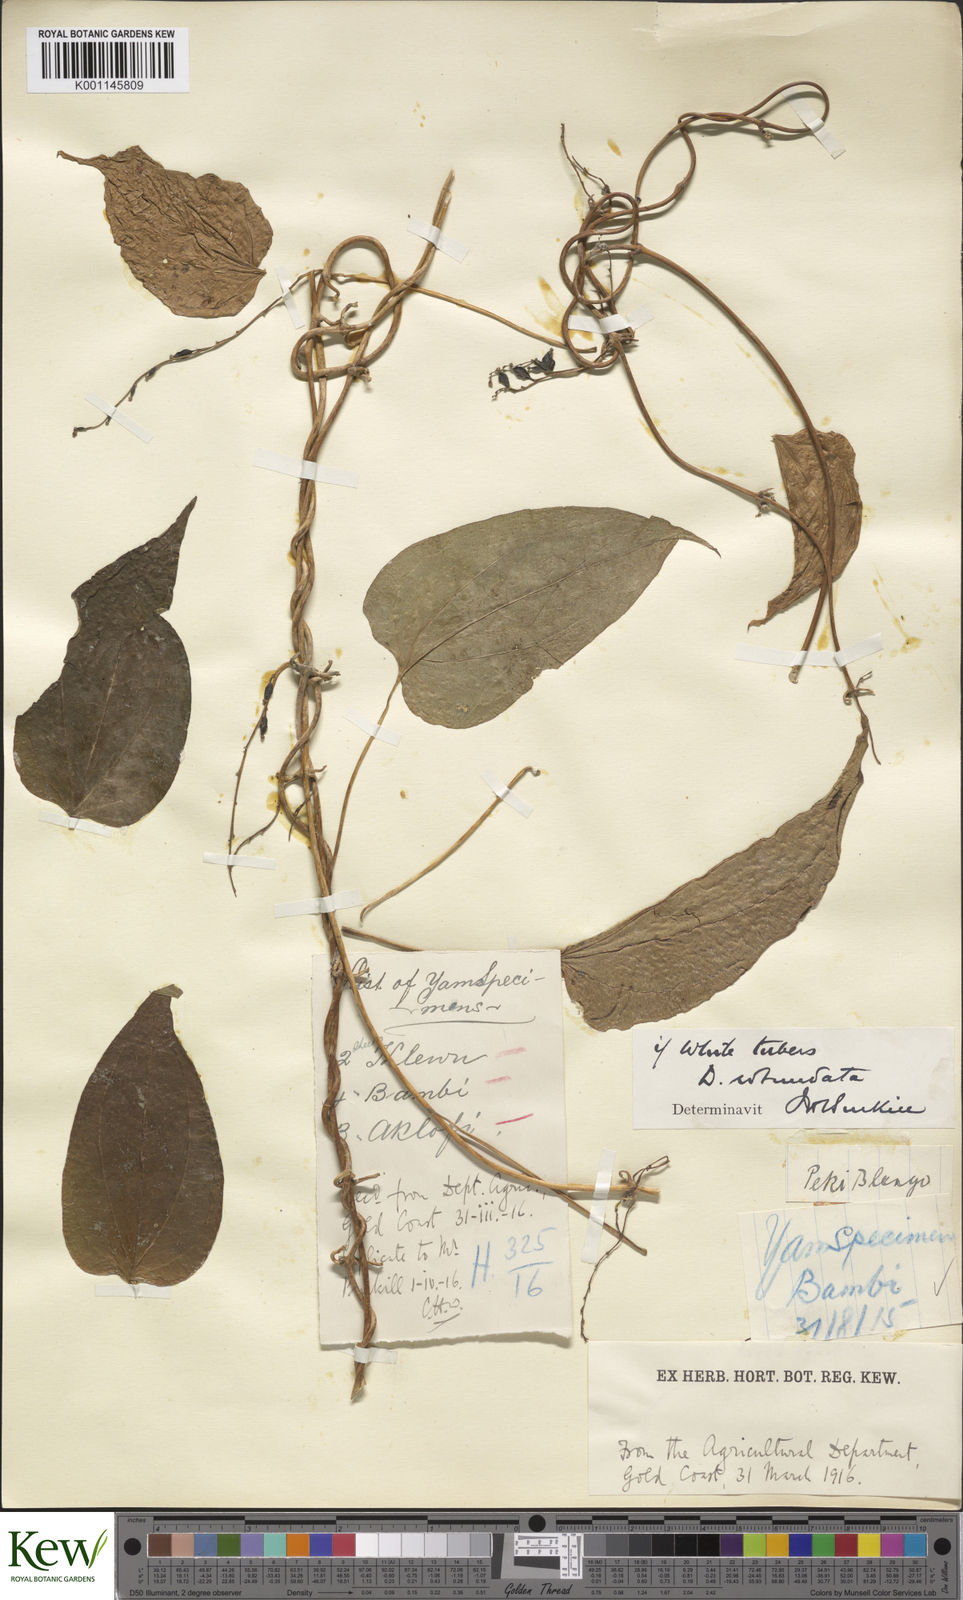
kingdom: Plantae
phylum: Tracheophyta
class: Liliopsida
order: Dioscoreales
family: Dioscoreaceae
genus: Dioscorea
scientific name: Dioscorea cayenensis
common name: Attoto yam
